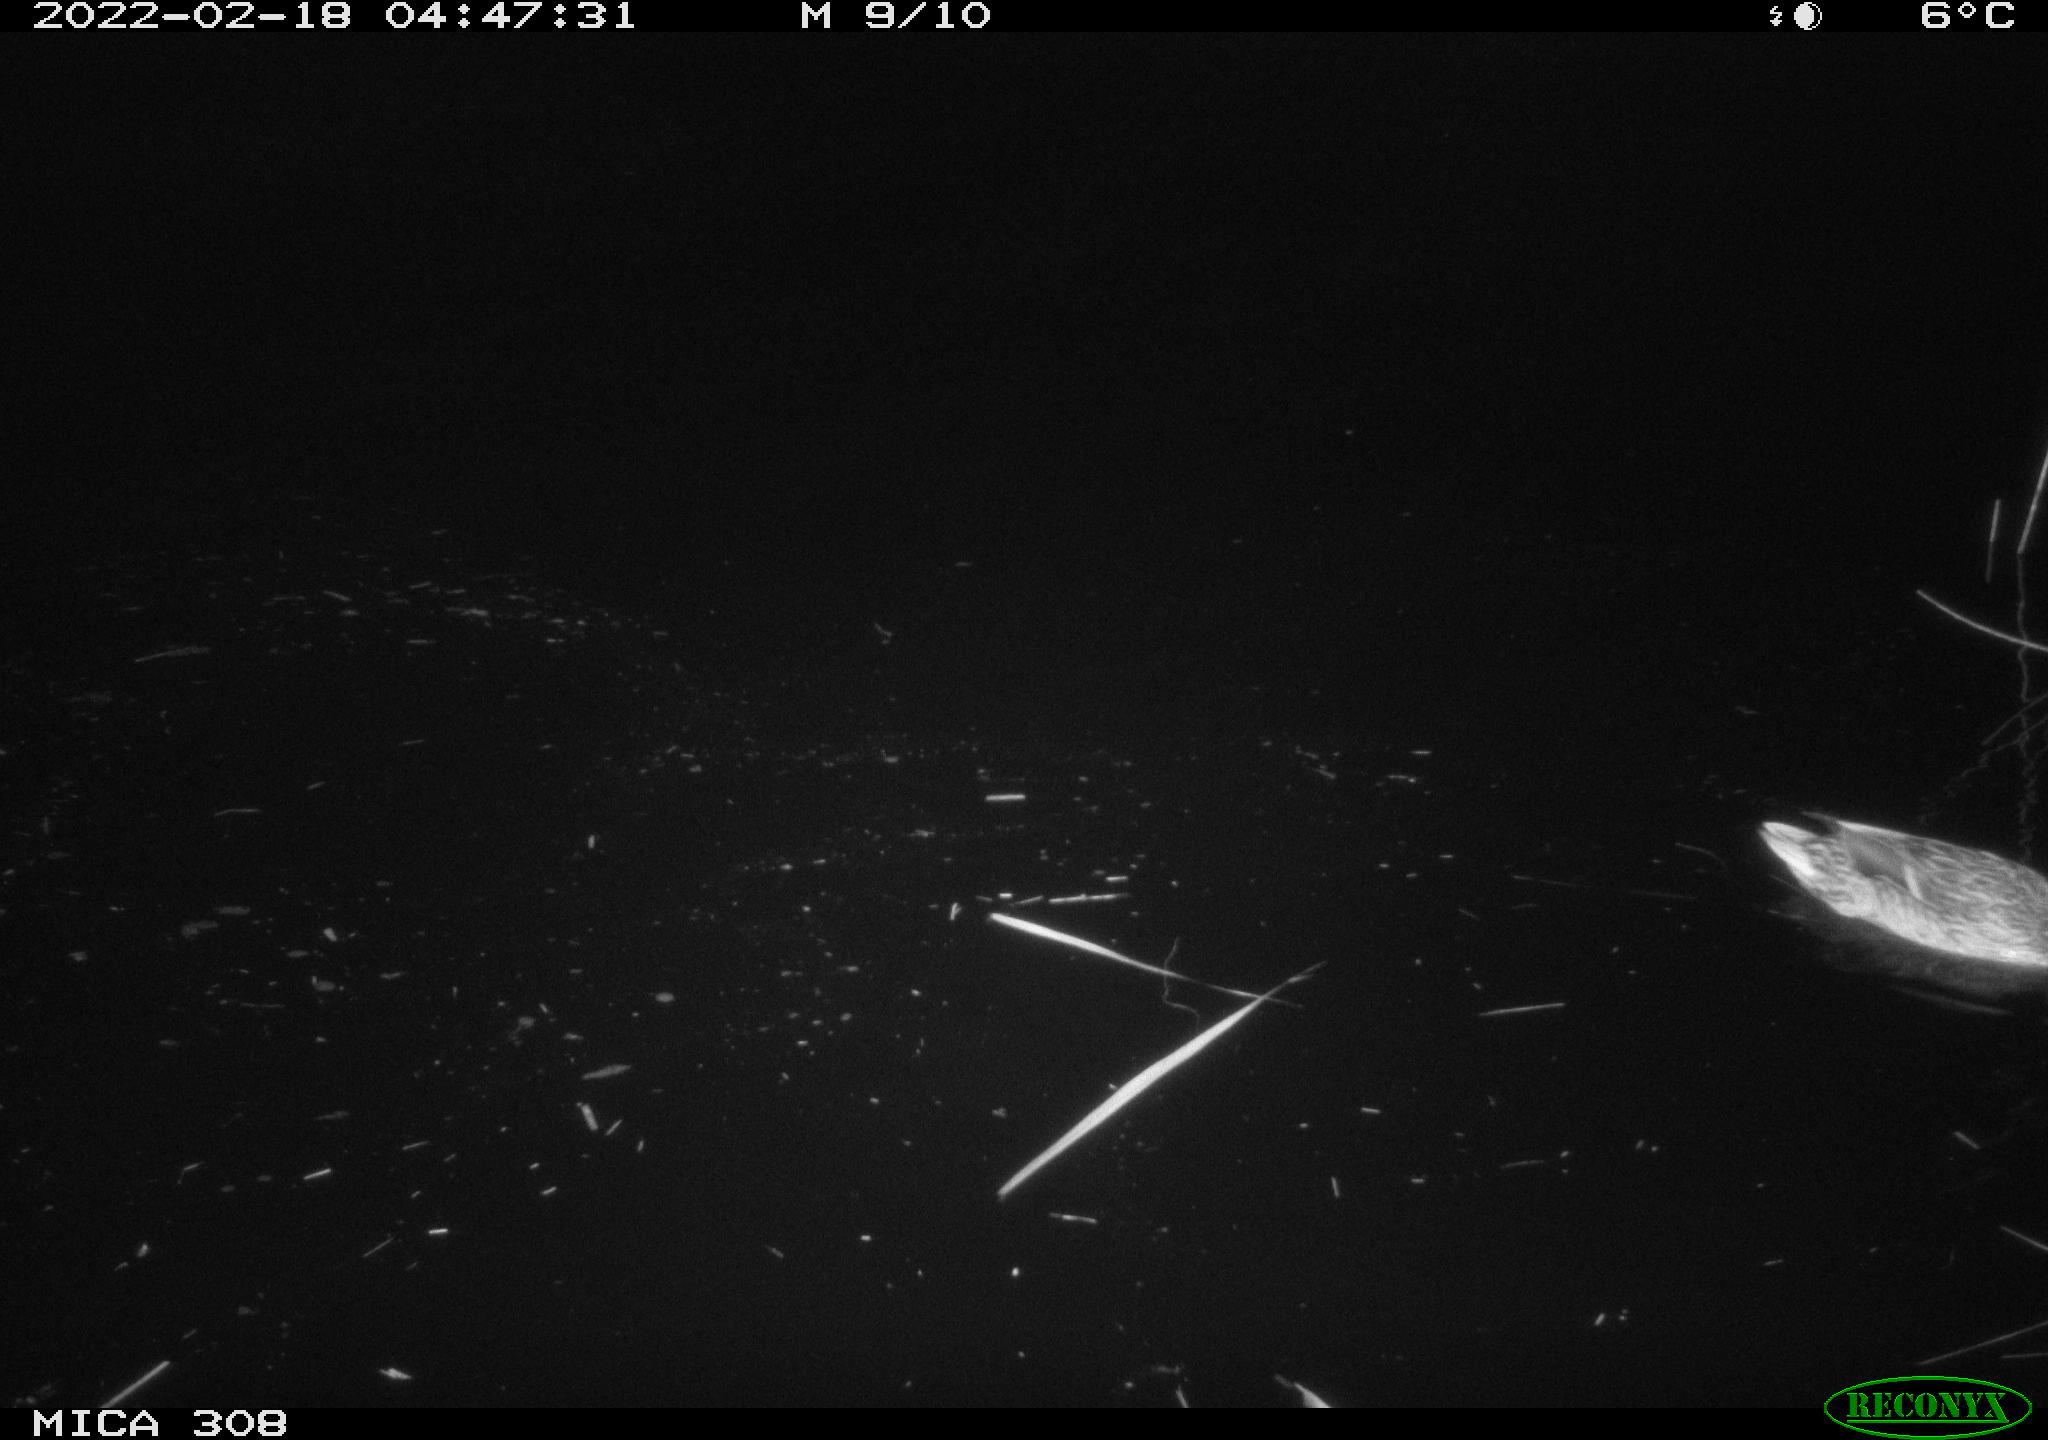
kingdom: Animalia
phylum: Chordata
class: Aves
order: Anseriformes
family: Anatidae
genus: Anas
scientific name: Anas platyrhynchos
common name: Mallard
